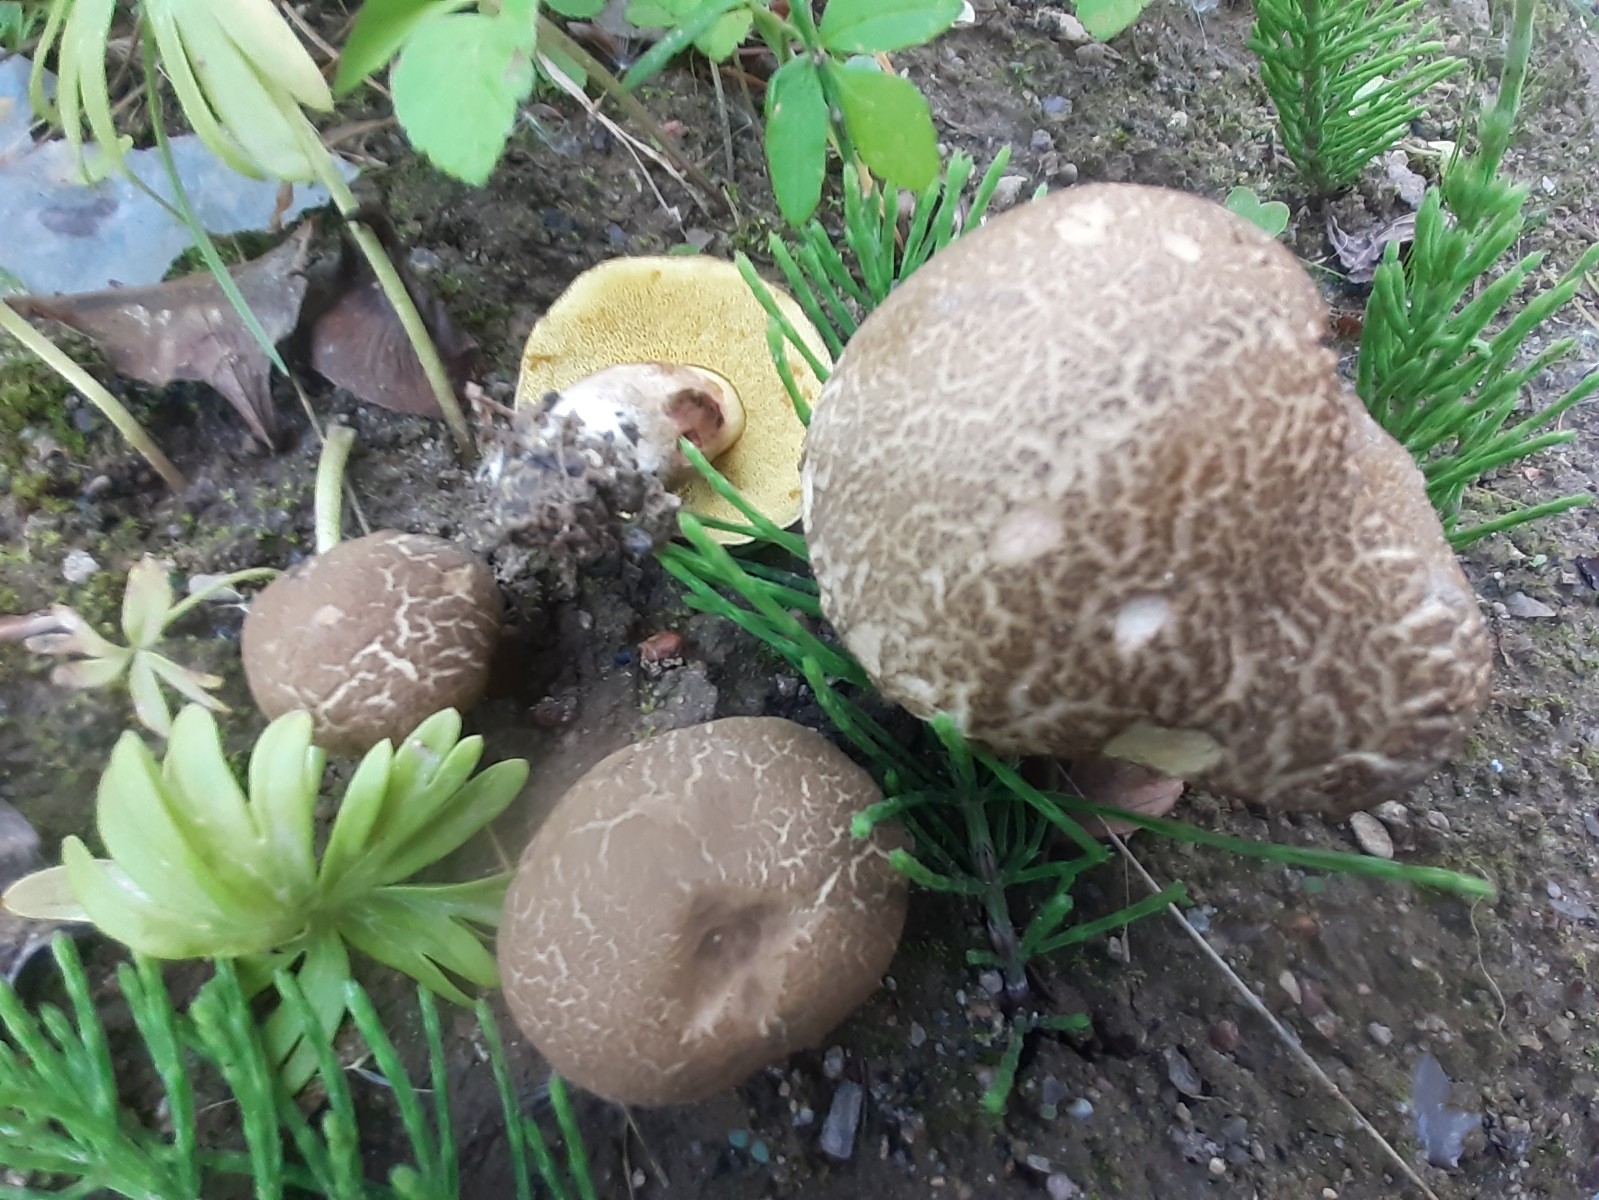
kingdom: Fungi
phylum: Basidiomycota
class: Agaricomycetes
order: Boletales
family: Boletaceae
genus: Xerocomellus
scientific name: Xerocomellus porosporus
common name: hvidsprukken rørhat
